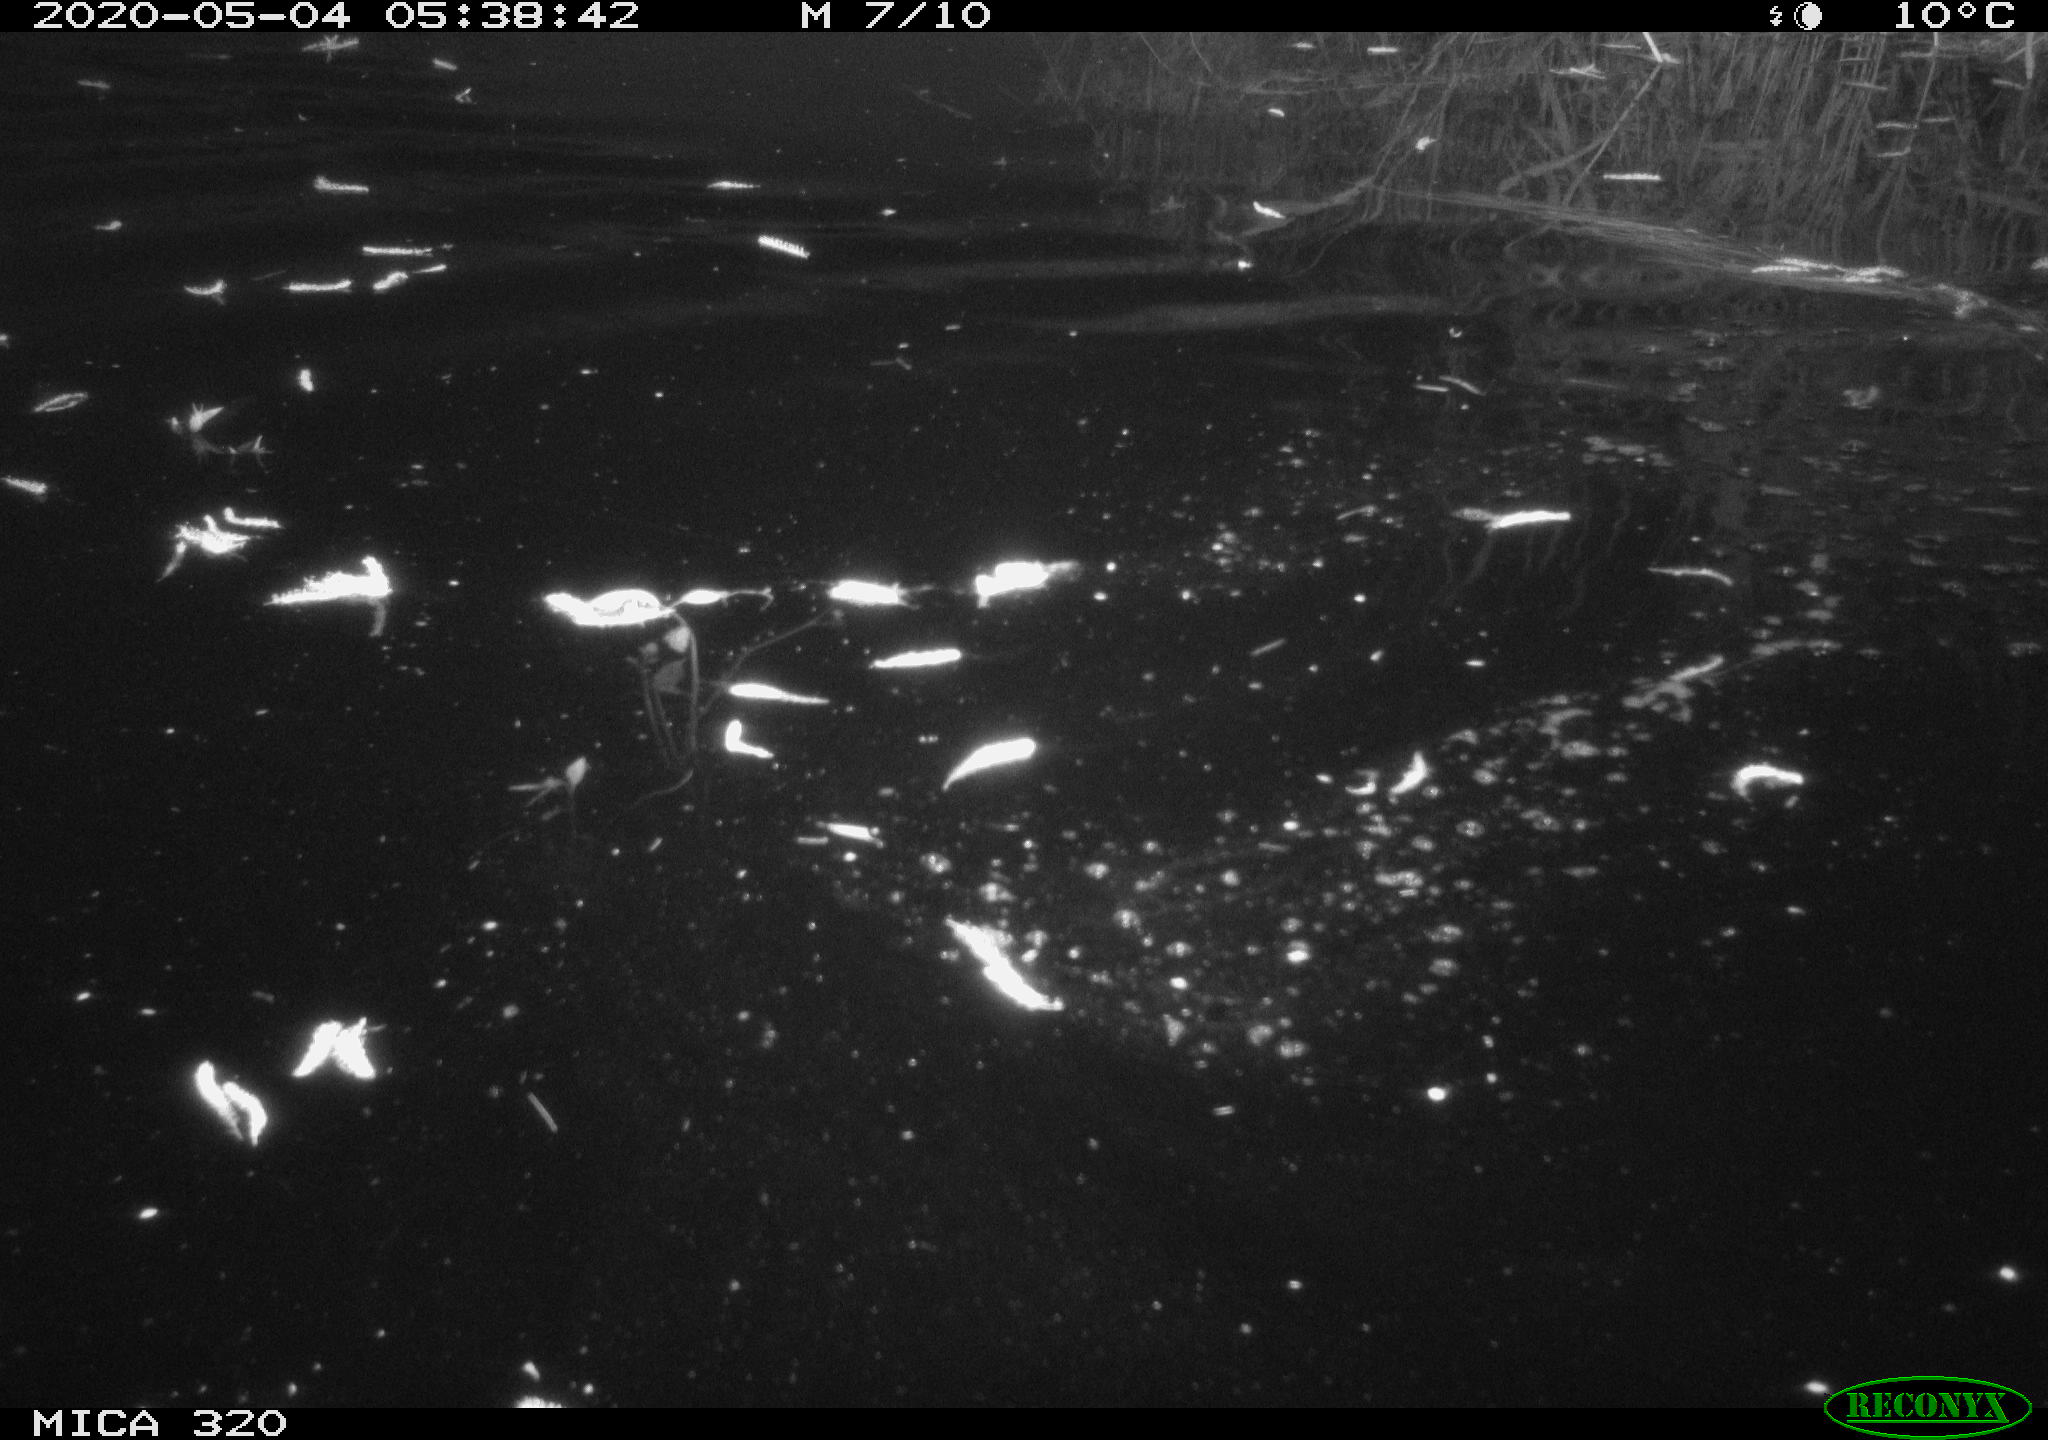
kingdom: Animalia
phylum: Chordata
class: Aves
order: Anseriformes
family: Anatidae
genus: Anas
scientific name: Anas platyrhynchos
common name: Mallard
